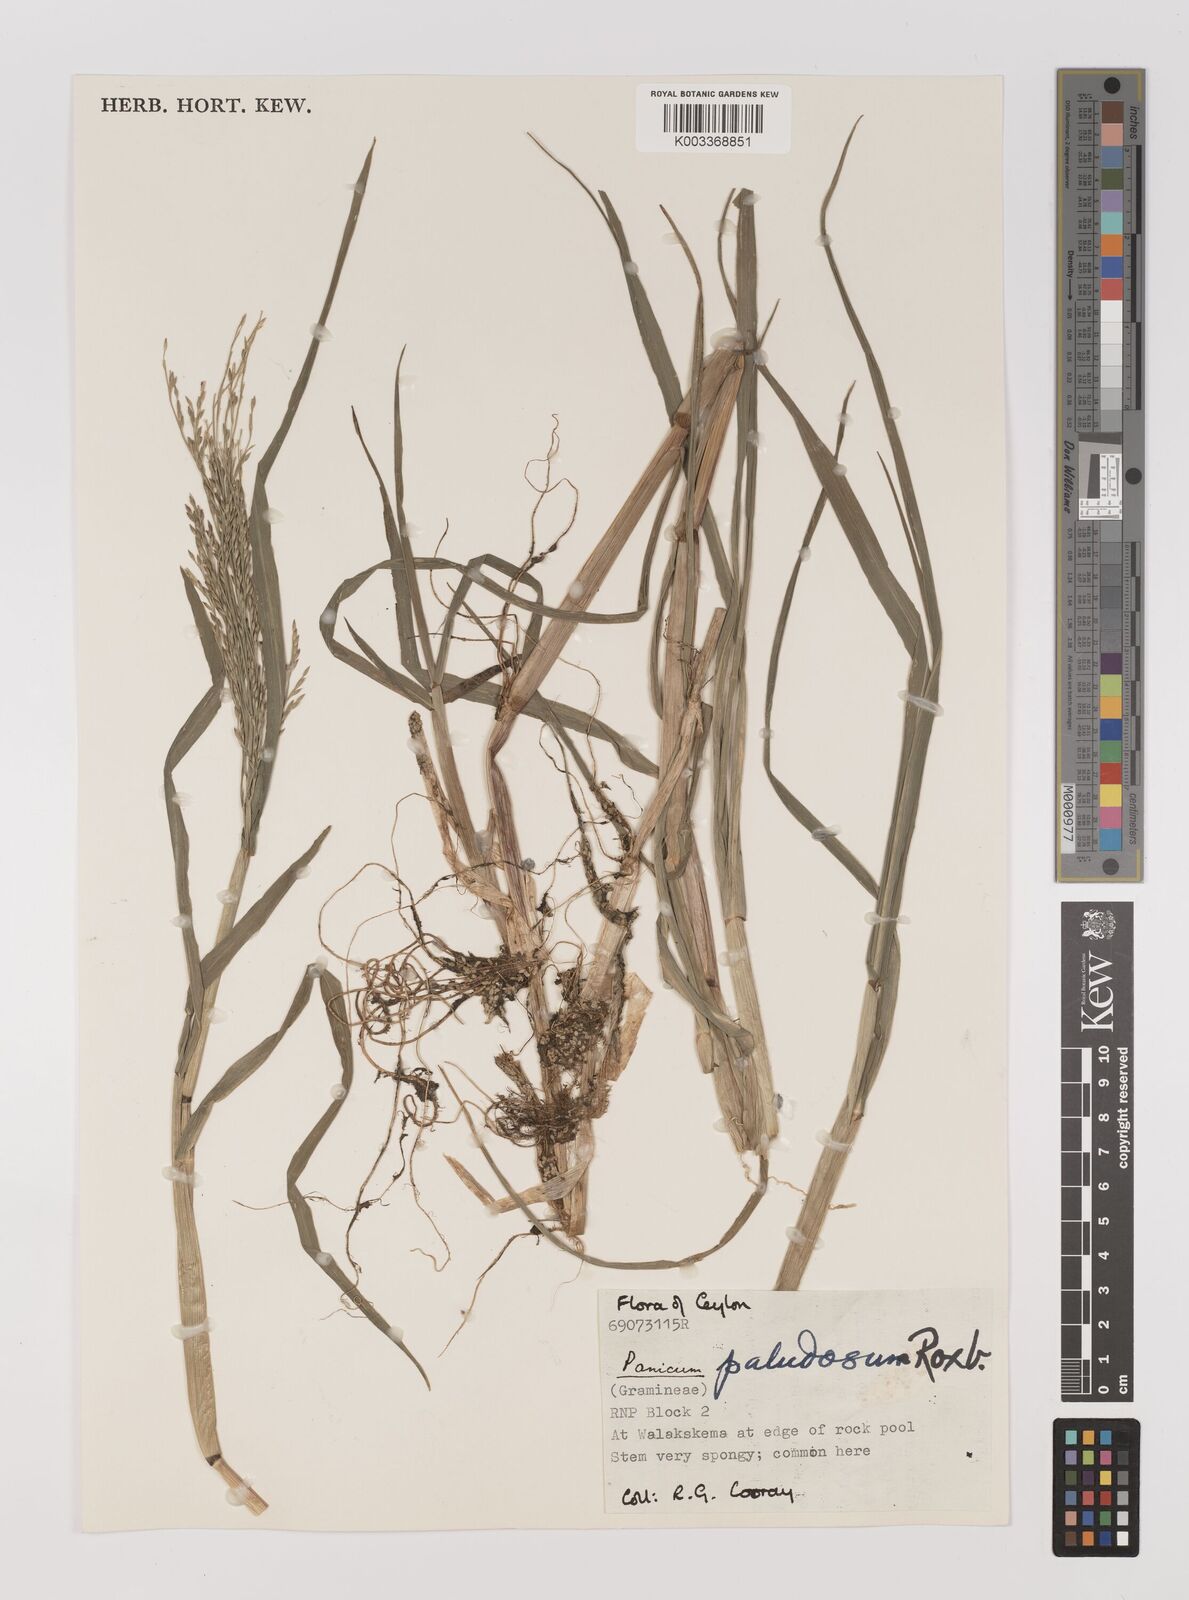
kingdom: Plantae
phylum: Tracheophyta
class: Liliopsida
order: Poales
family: Poaceae
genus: Louisiella
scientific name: Louisiella paludosa
